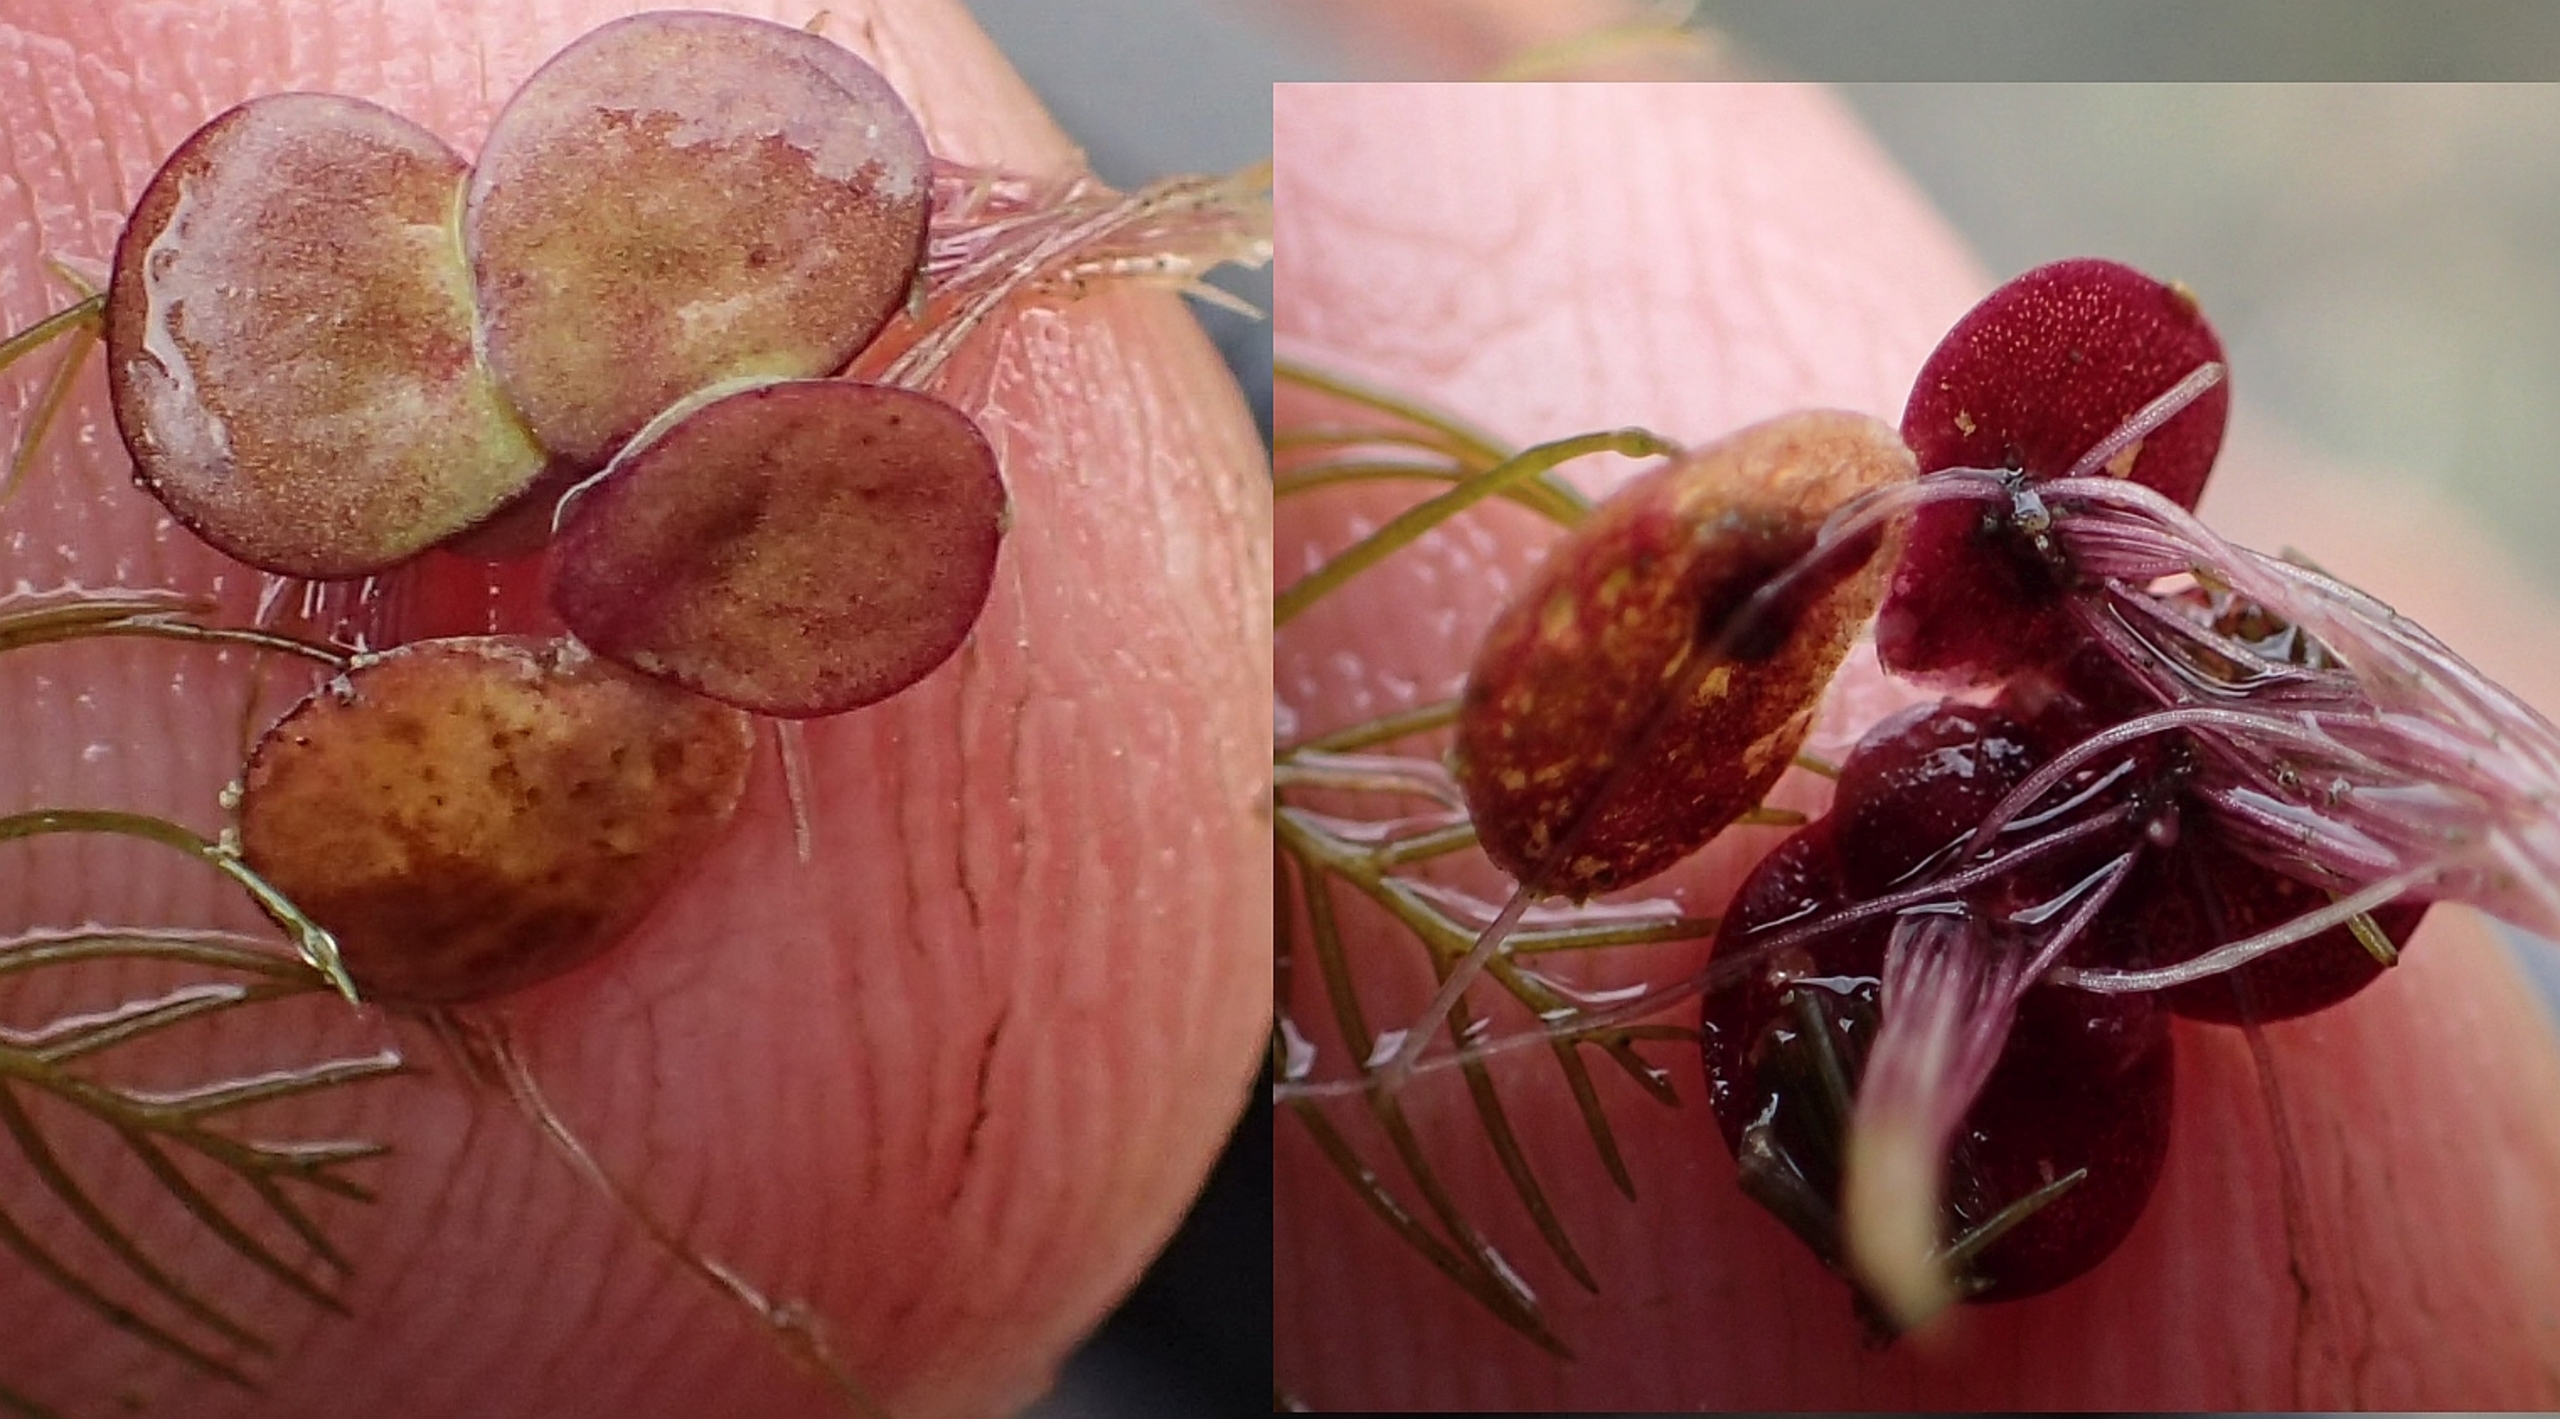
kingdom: Plantae
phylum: Tracheophyta
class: Liliopsida
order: Alismatales
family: Araceae
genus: Spirodela
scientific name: Spirodela polyrhiza
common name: Stor andemad
